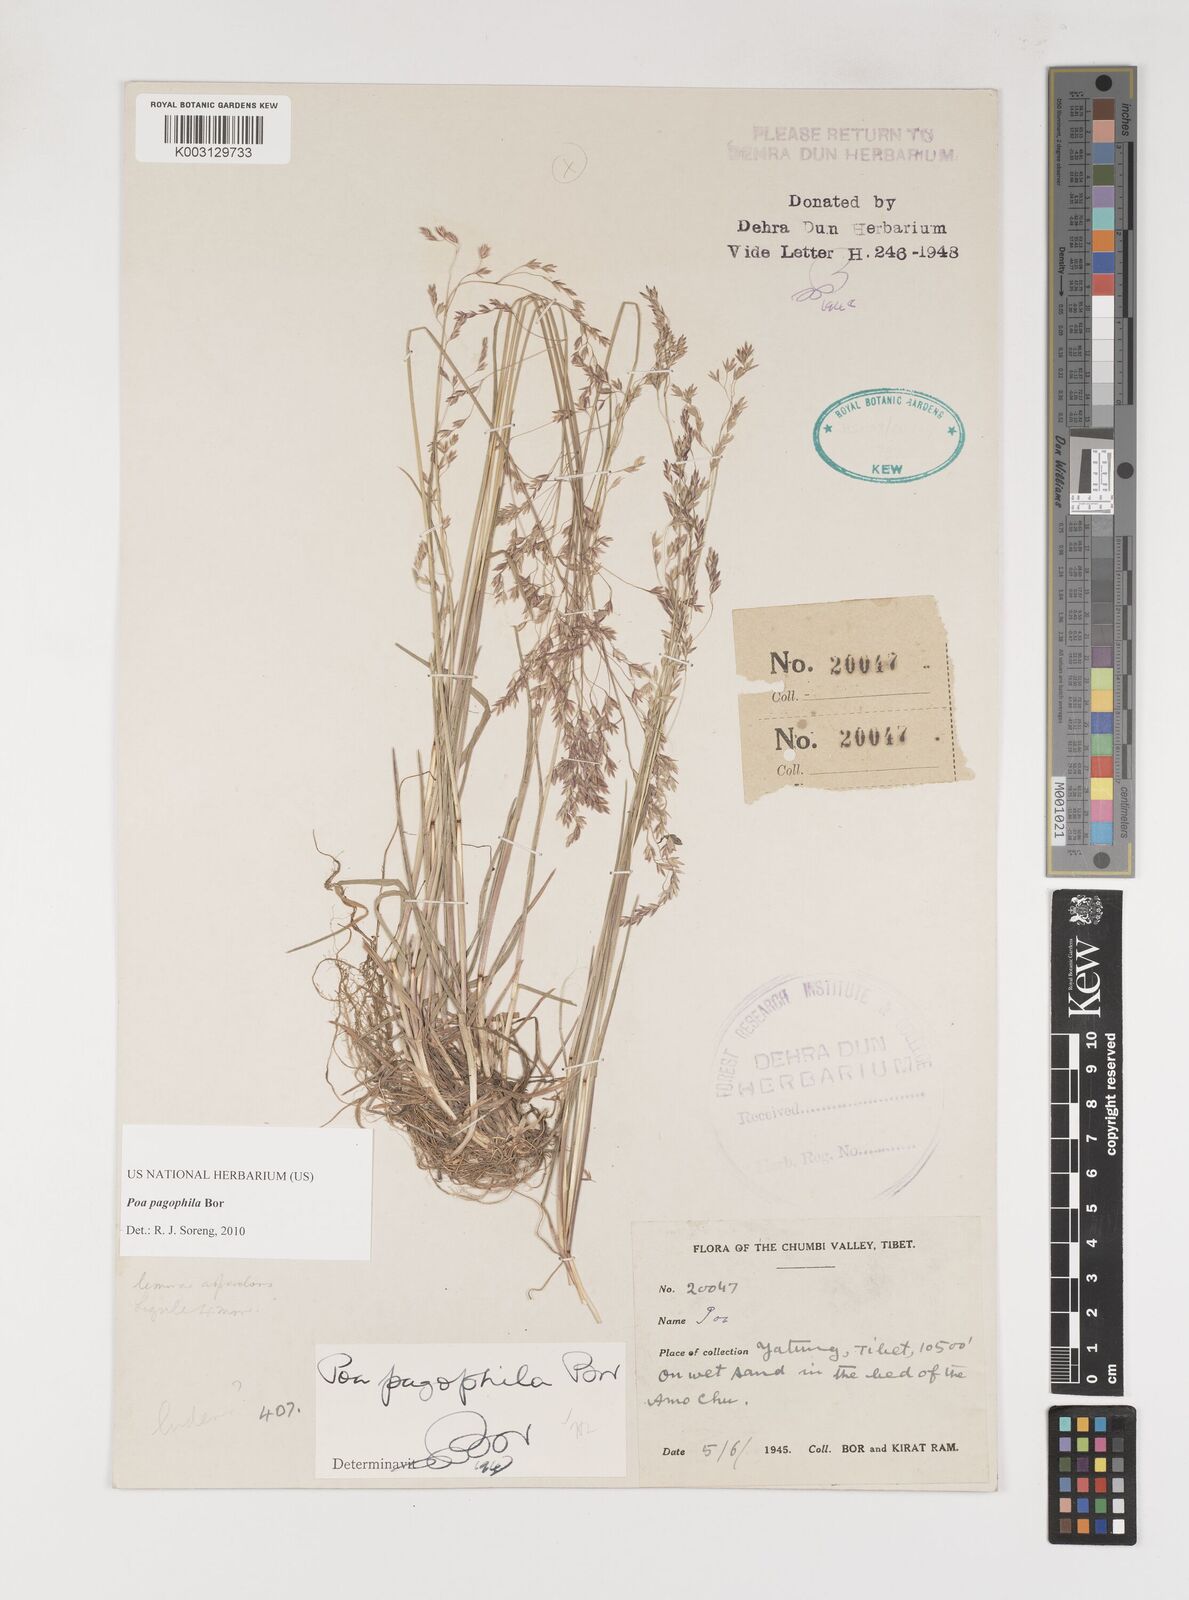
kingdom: Plantae
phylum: Tracheophyta
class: Liliopsida
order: Poales
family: Poaceae
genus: Poa
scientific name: Poa pagophila
